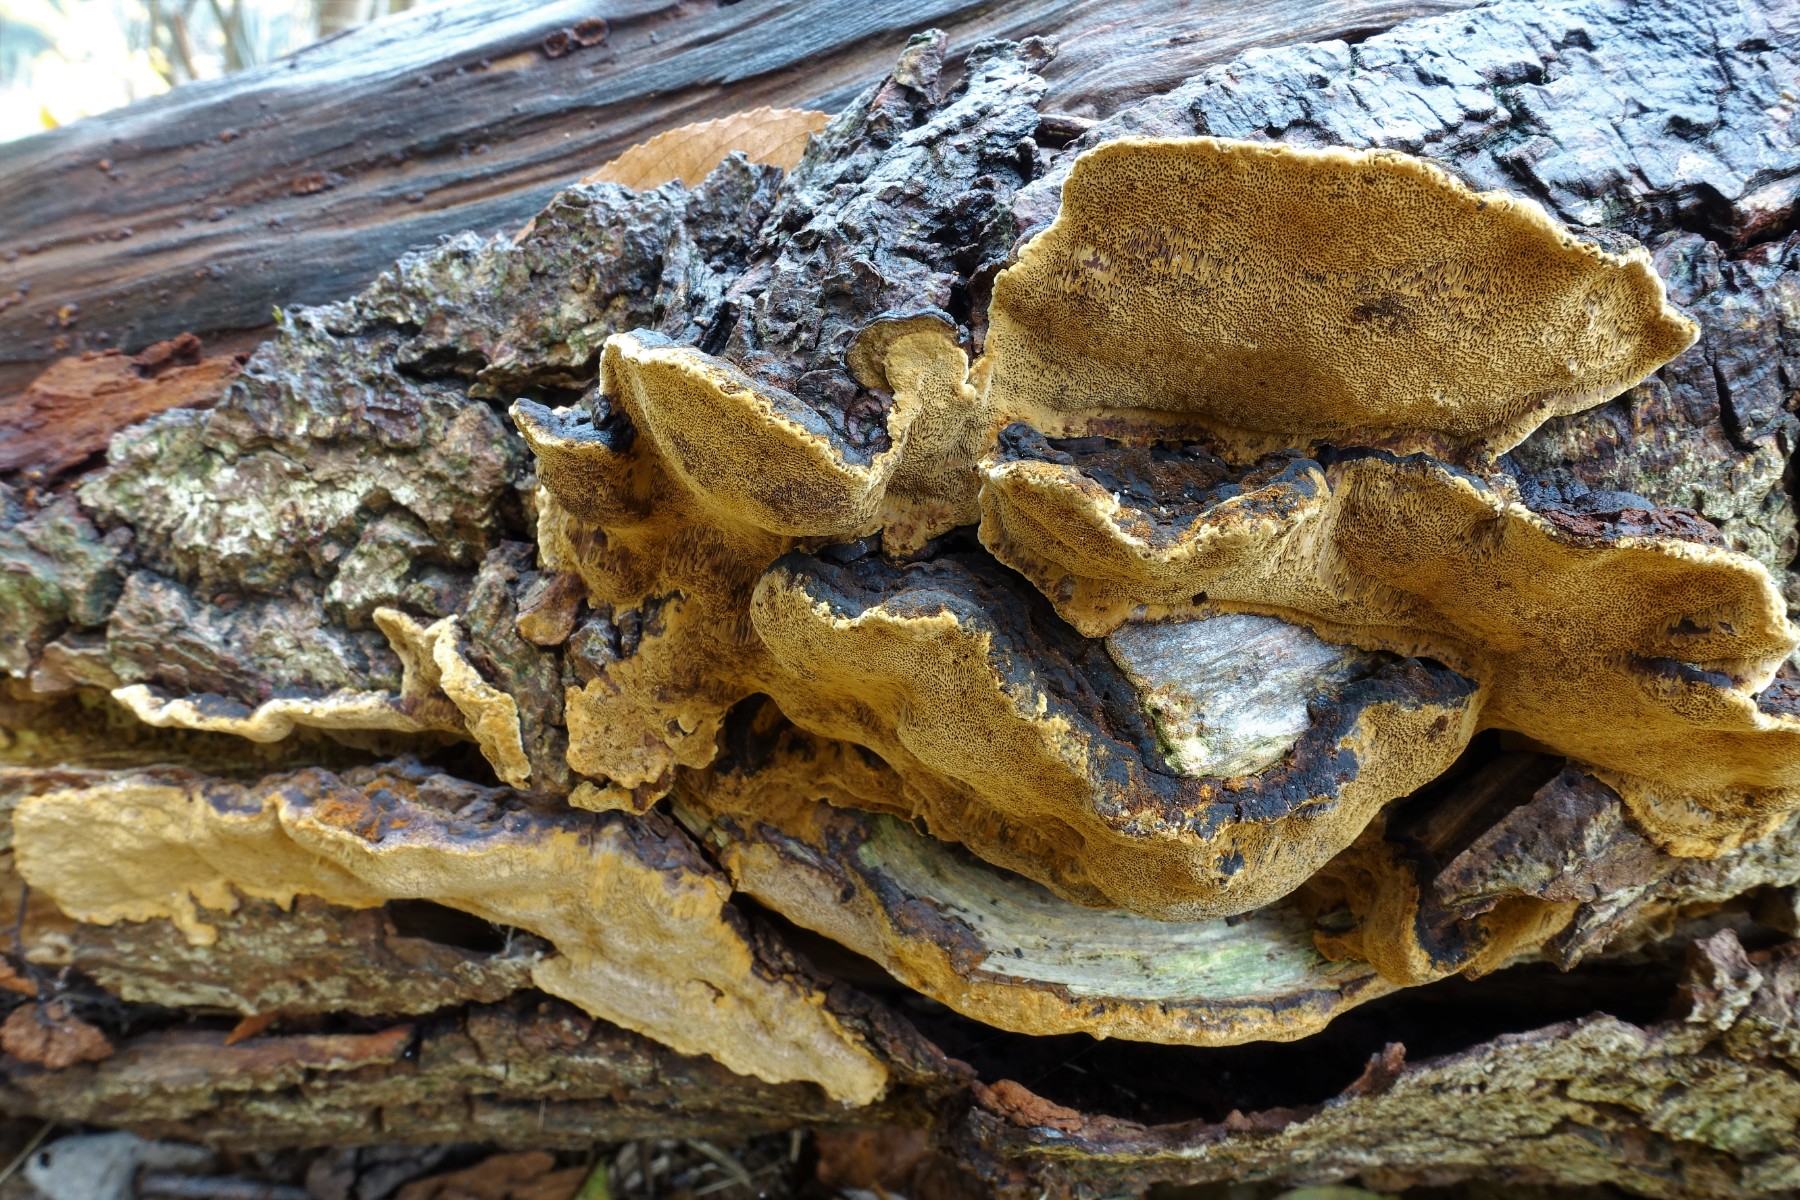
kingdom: Fungi
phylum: Basidiomycota
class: Agaricomycetes
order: Hymenochaetales
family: Hymenochaetaceae
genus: Phellinopsis
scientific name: Phellinopsis conchata
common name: pile-ildporesvamp
